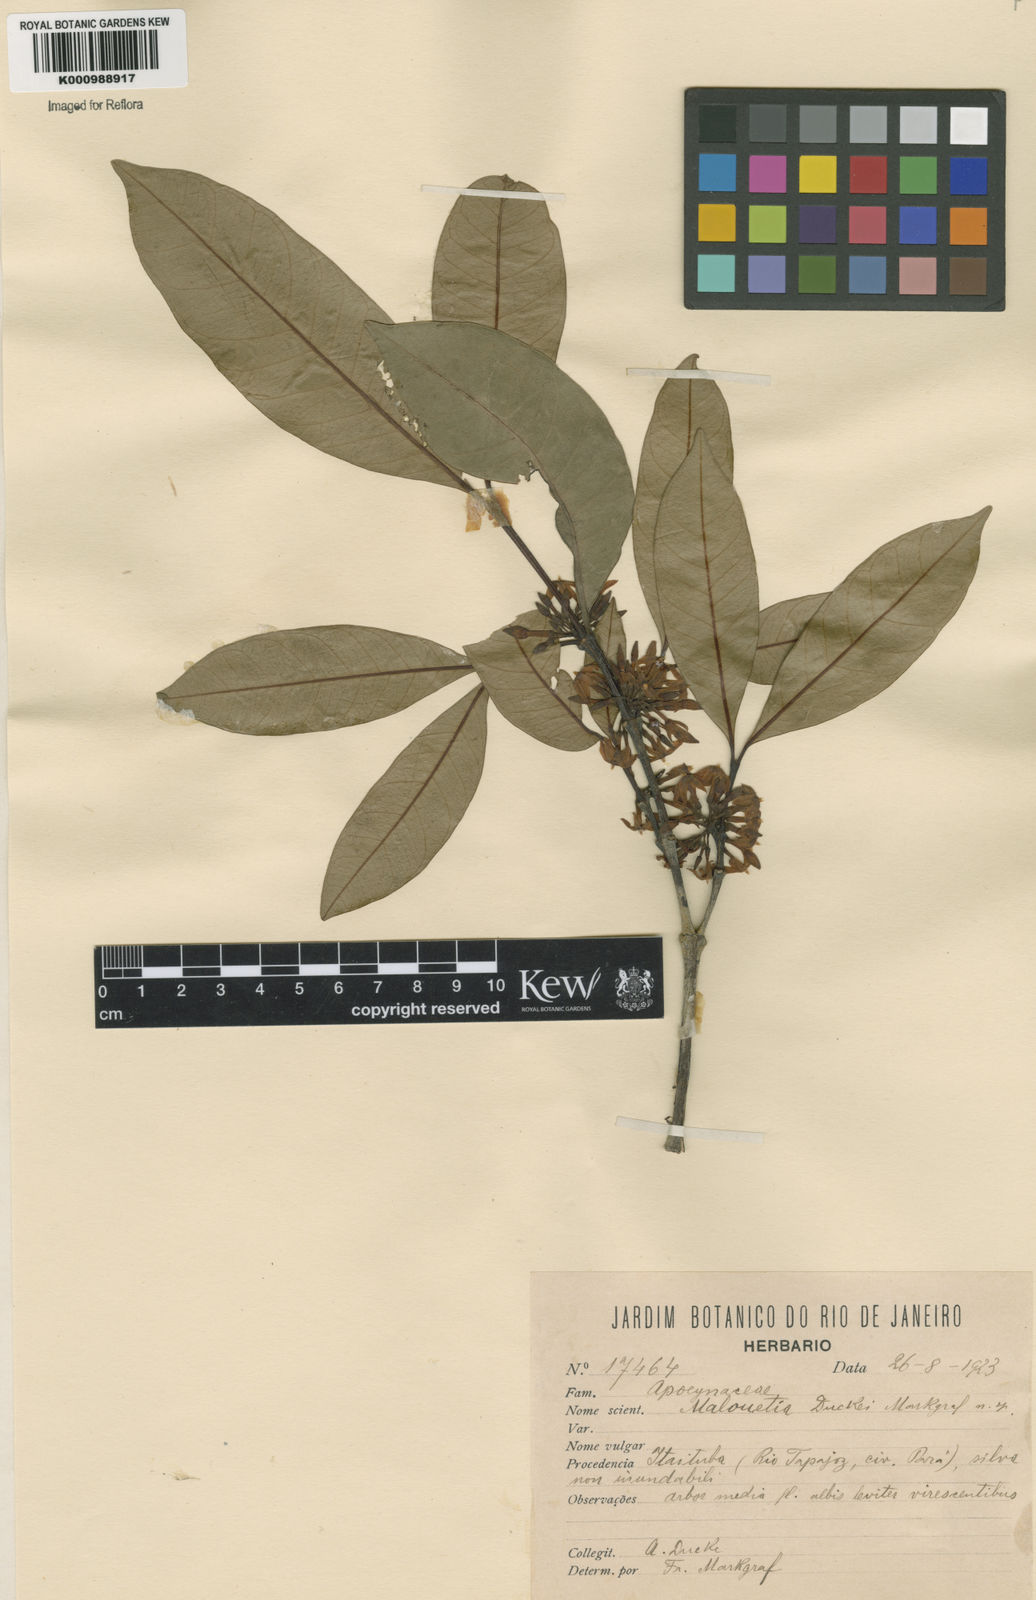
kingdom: Plantae
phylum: Tracheophyta
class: Magnoliopsida
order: Gentianales
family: Apocynaceae
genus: Malouetia
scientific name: Malouetia duckei
